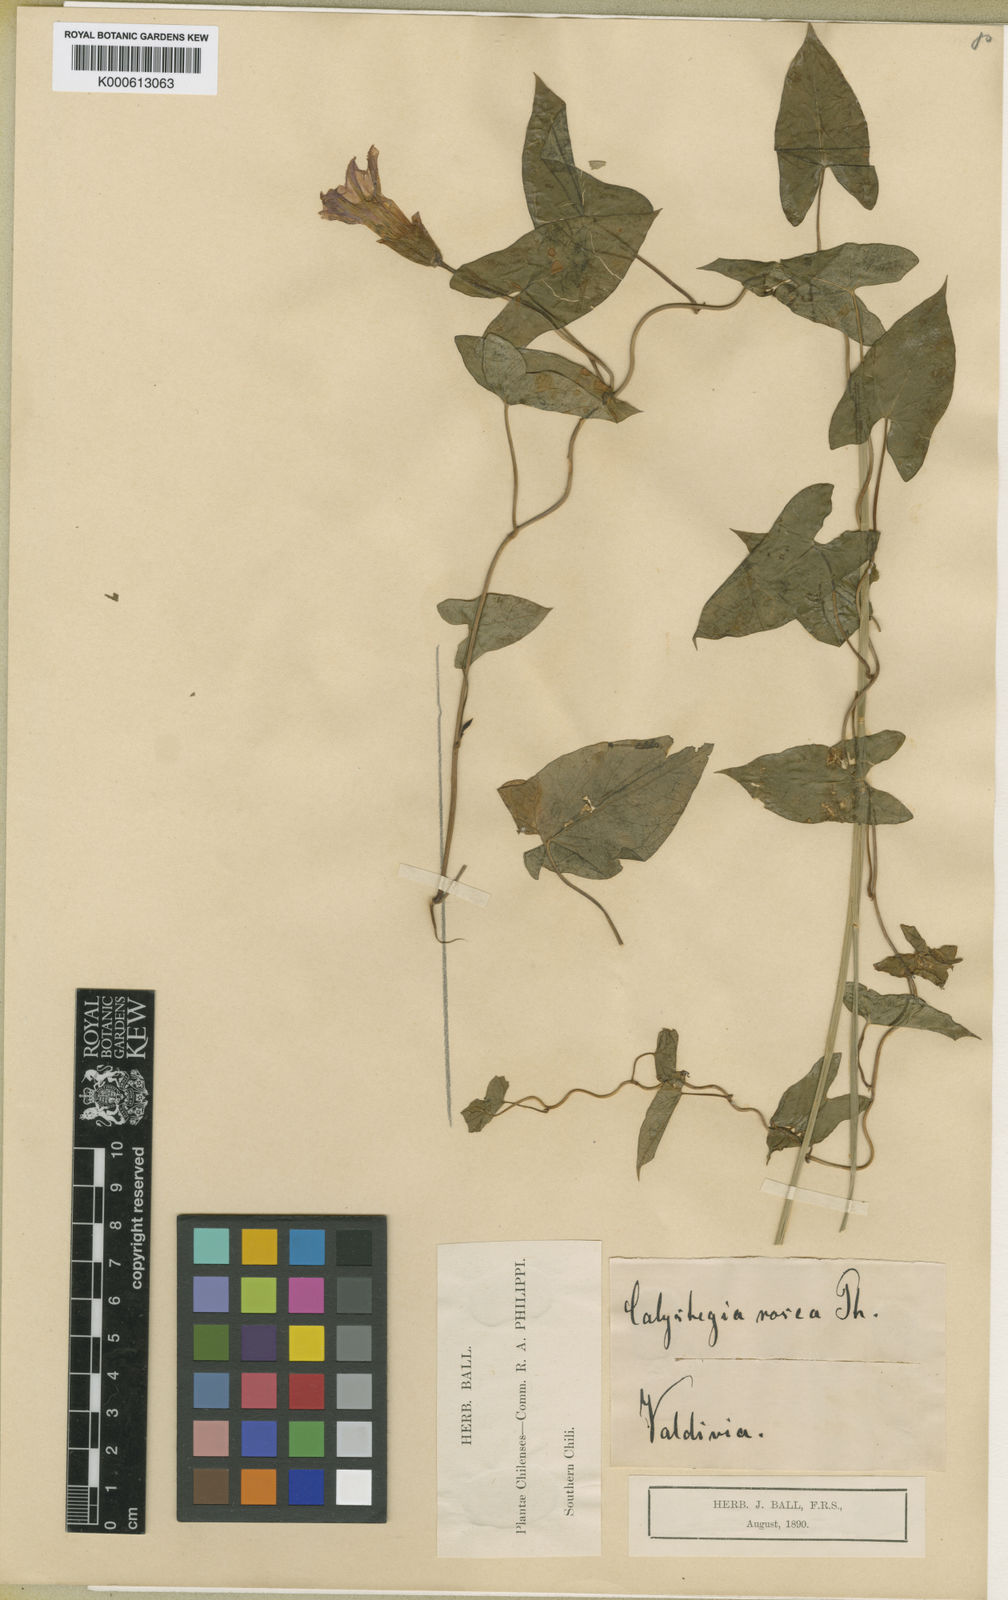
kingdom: Plantae
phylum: Tracheophyta
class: Magnoliopsida
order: Solanales
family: Convolvulaceae
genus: Calystegia
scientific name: Calystegia sepium
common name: Hedge bindweed
